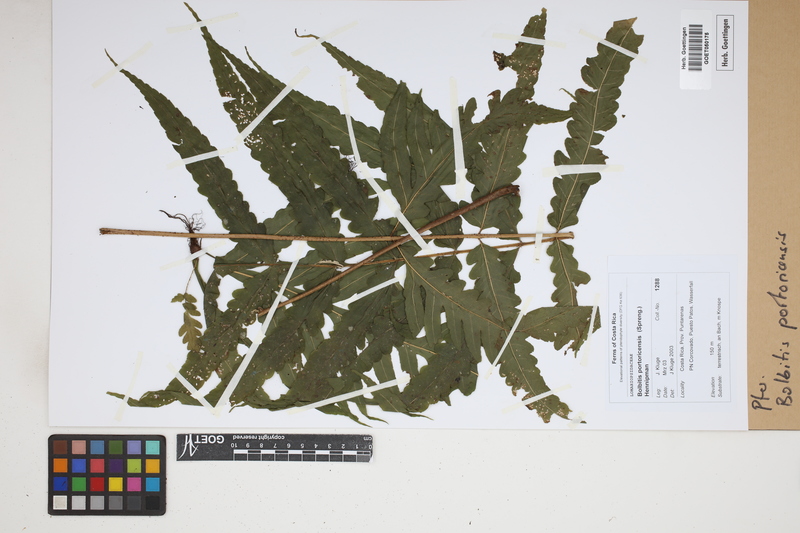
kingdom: Plantae
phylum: Tracheophyta
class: Polypodiopsida
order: Polypodiales
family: Dryopteridaceae
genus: Bolbitis
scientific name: Bolbitis portoricensis
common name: Puerto rico creepingfer
